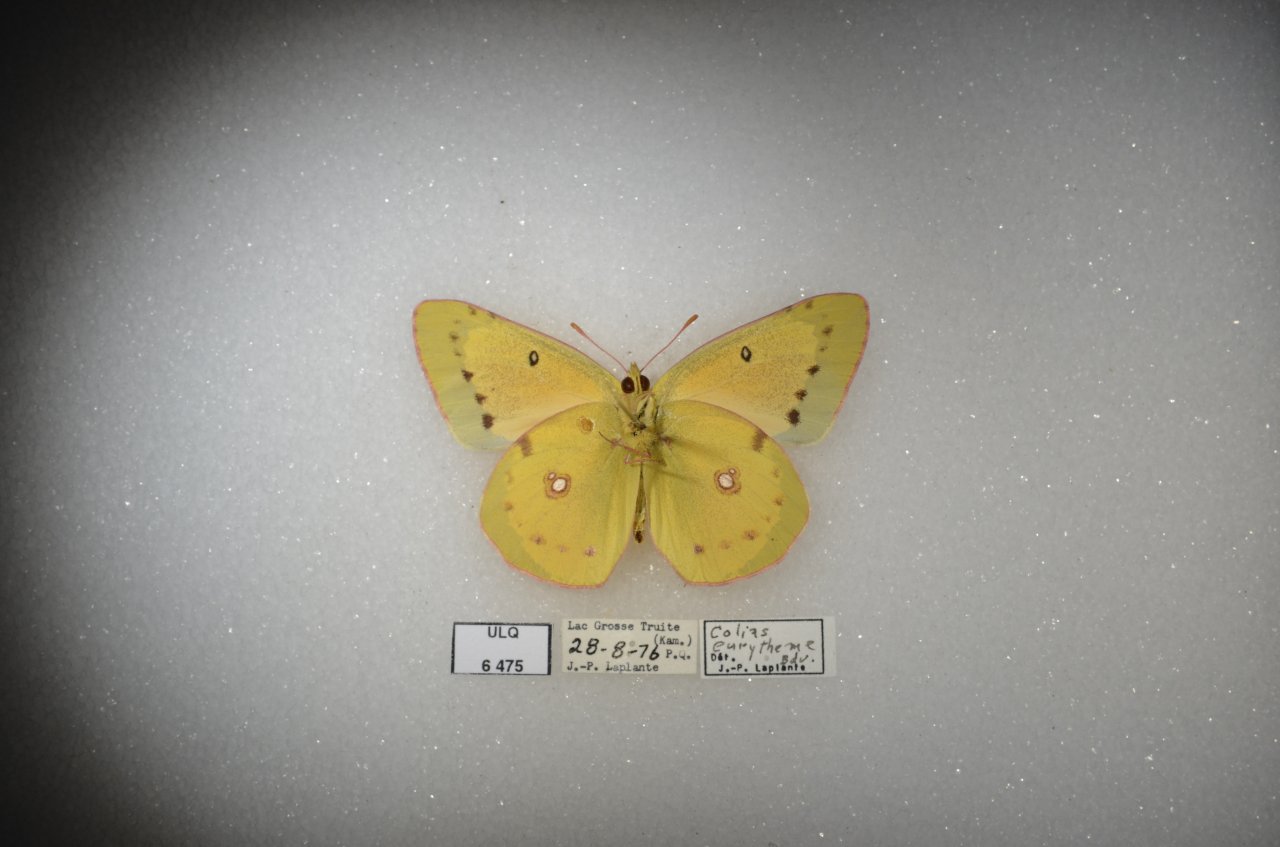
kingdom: Animalia
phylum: Arthropoda
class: Insecta
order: Lepidoptera
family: Pieridae
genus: Colias
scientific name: Colias eurytheme
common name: Orange Sulphur
